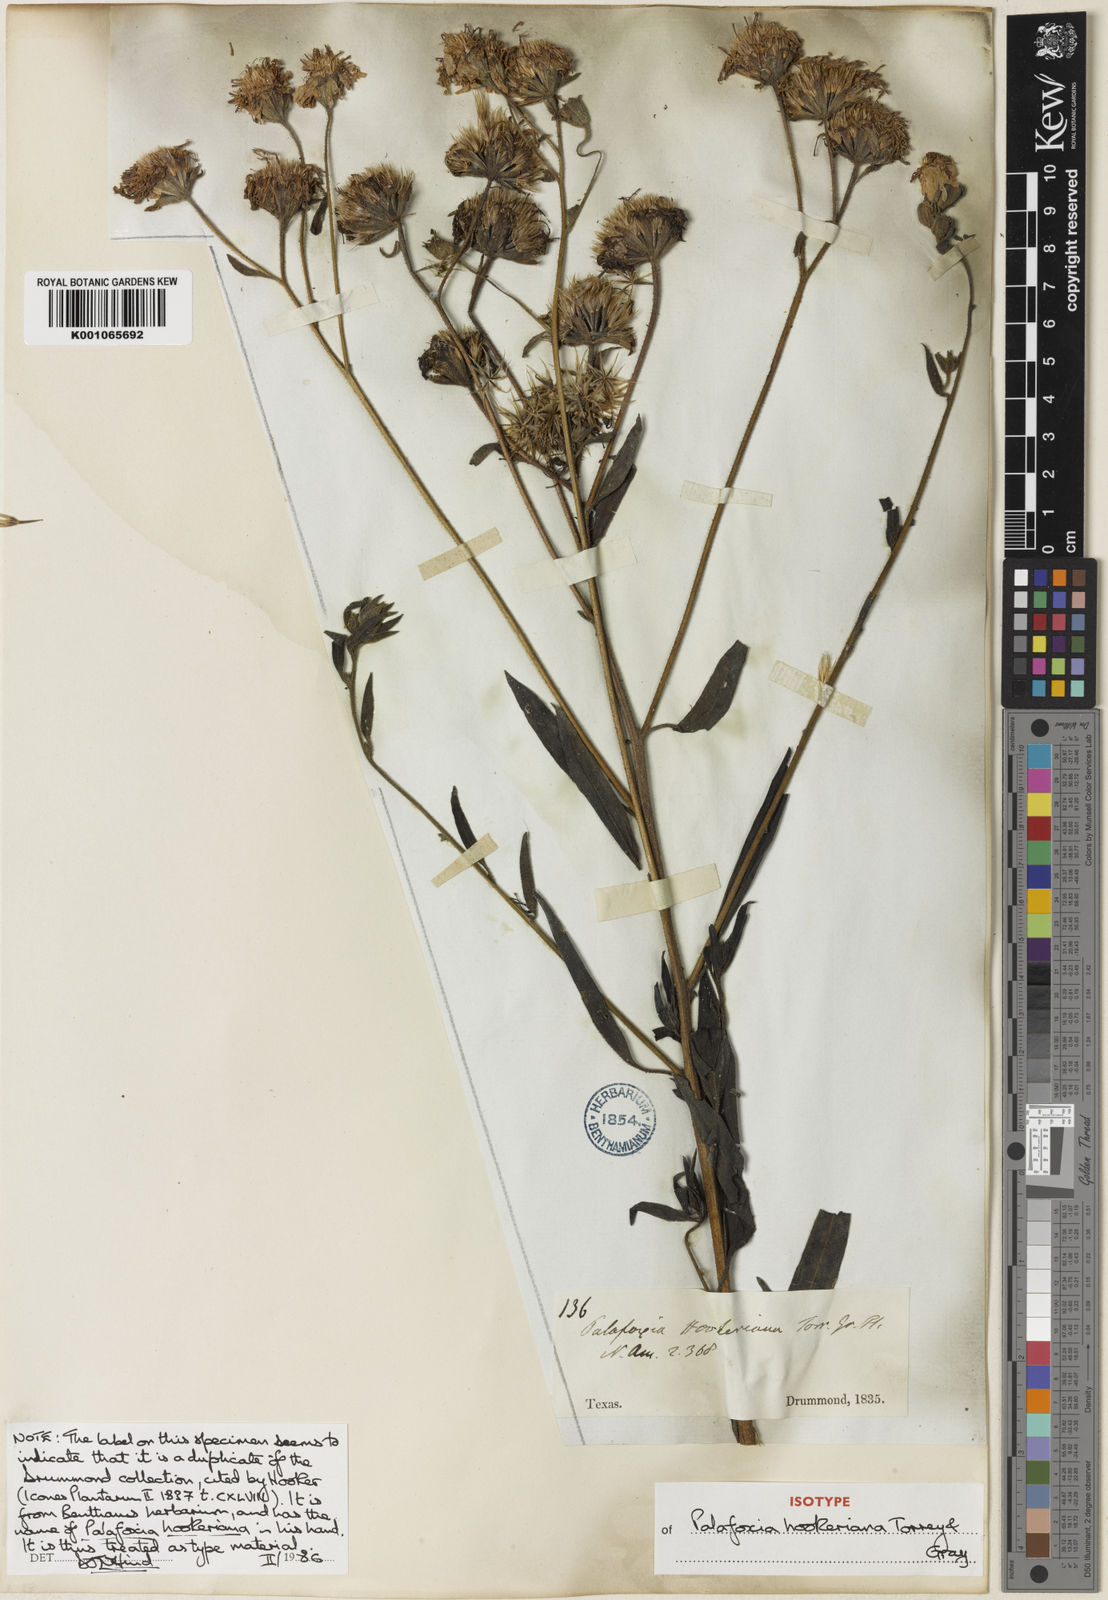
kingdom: Plantae
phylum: Tracheophyta
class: Magnoliopsida
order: Asterales
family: Asteraceae
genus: Palafoxia
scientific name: Palafoxia hookeriana
